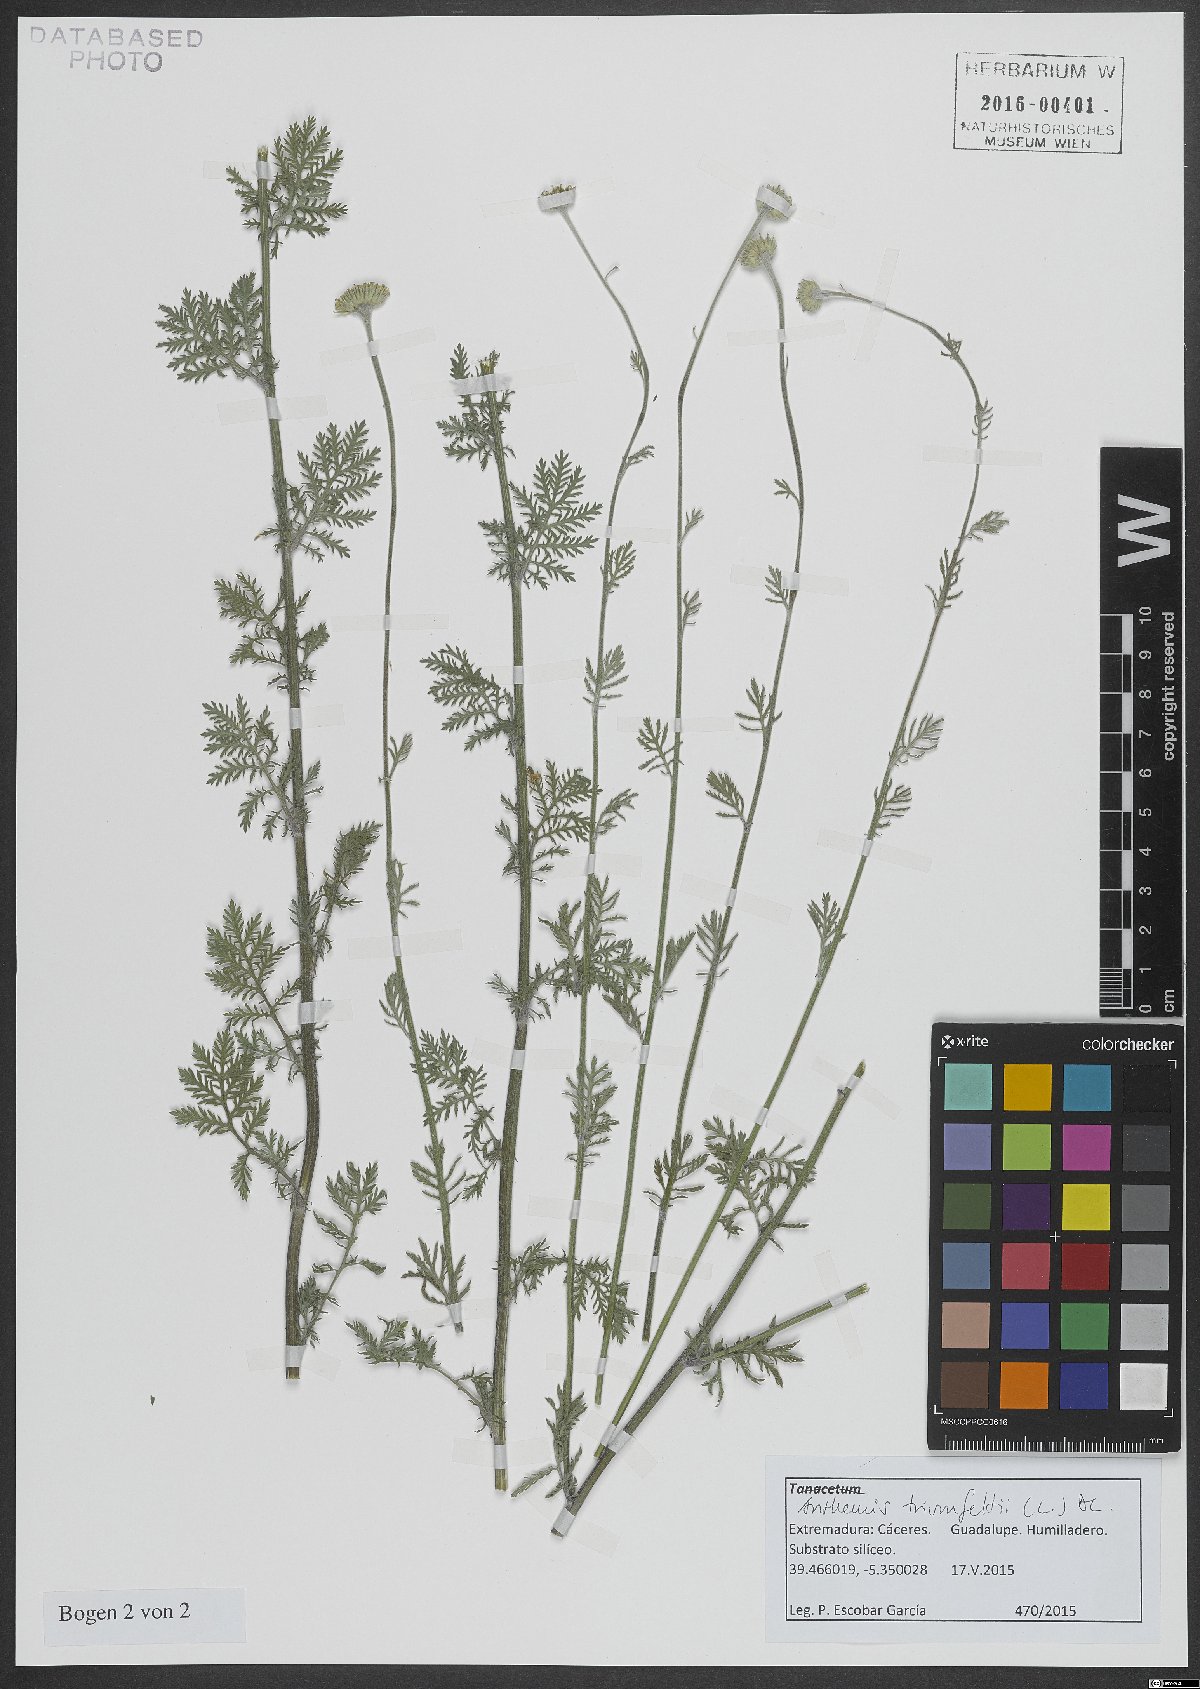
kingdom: Plantae
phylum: Tracheophyta
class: Magnoliopsida
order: Asterales
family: Asteraceae
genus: Cota
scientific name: Cota triumfetti
